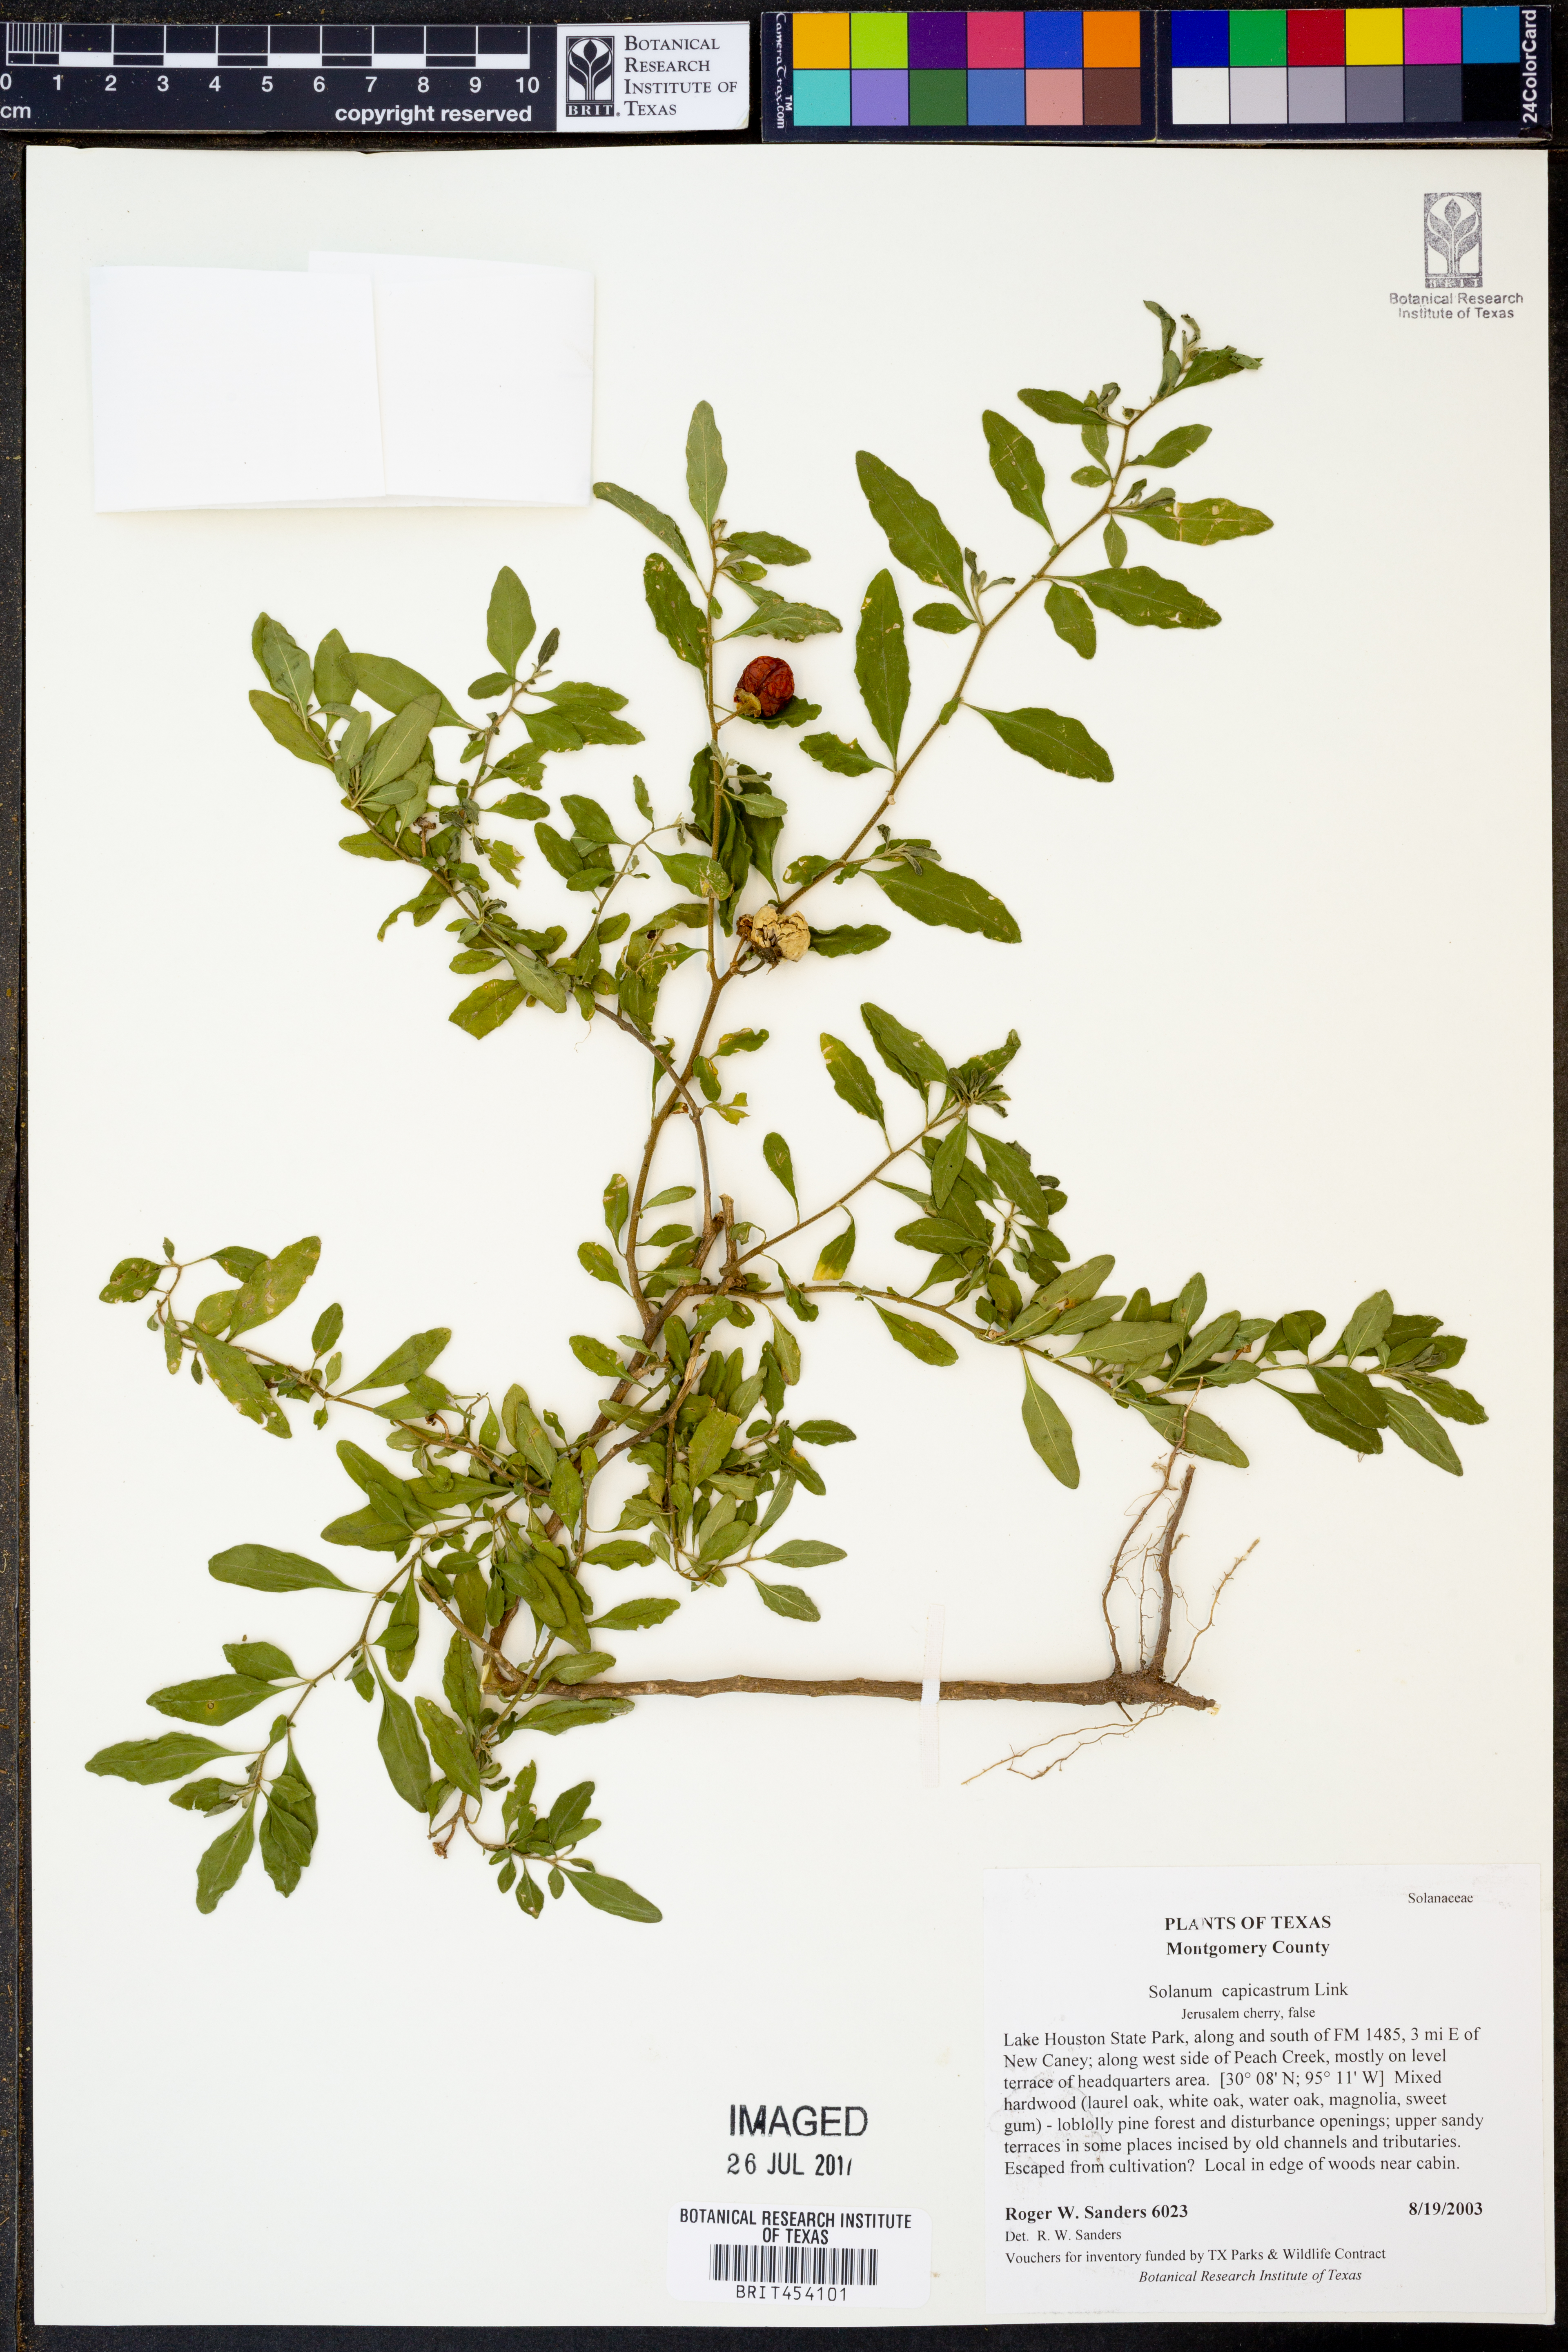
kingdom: Plantae
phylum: Tracheophyta
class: Magnoliopsida
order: Solanales
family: Solanaceae
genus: Solanum
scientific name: Solanum pseudocapsicum
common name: Jerusalem cherry
